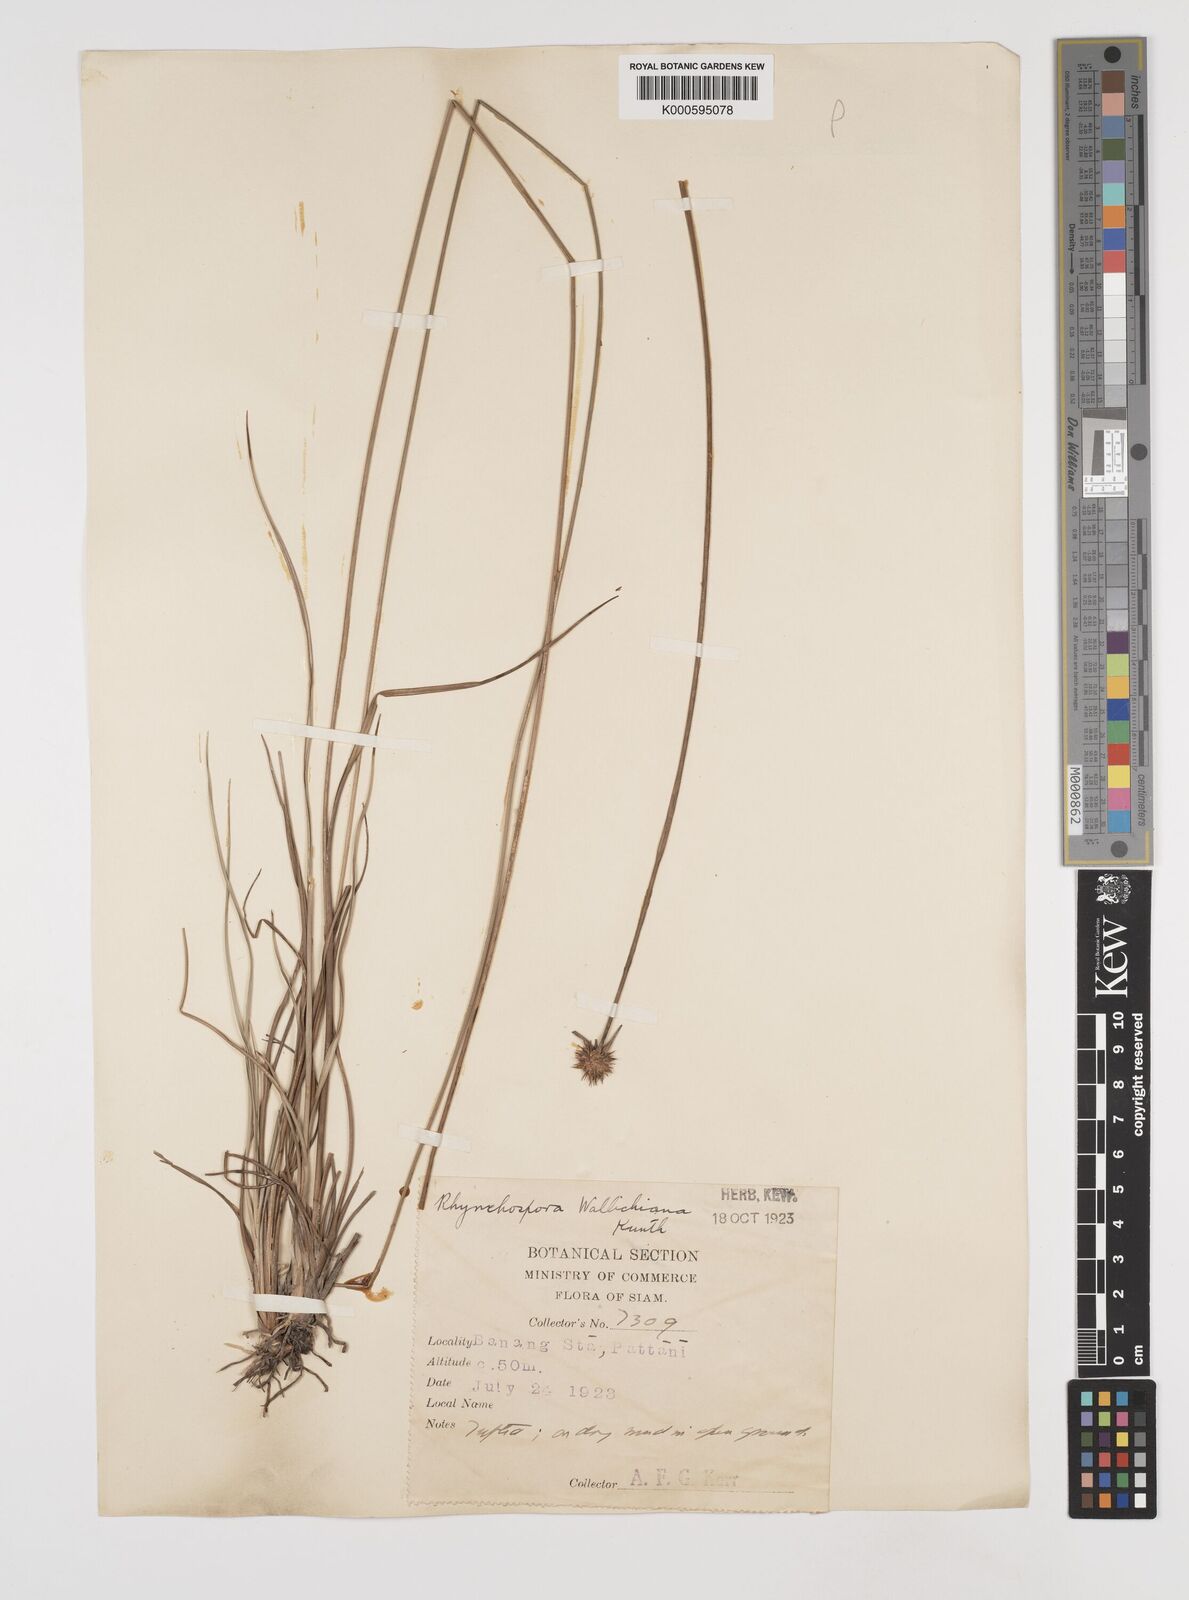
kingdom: Plantae
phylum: Tracheophyta
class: Liliopsida
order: Poales
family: Cyperaceae
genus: Rhynchospora
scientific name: Rhynchospora rubra
